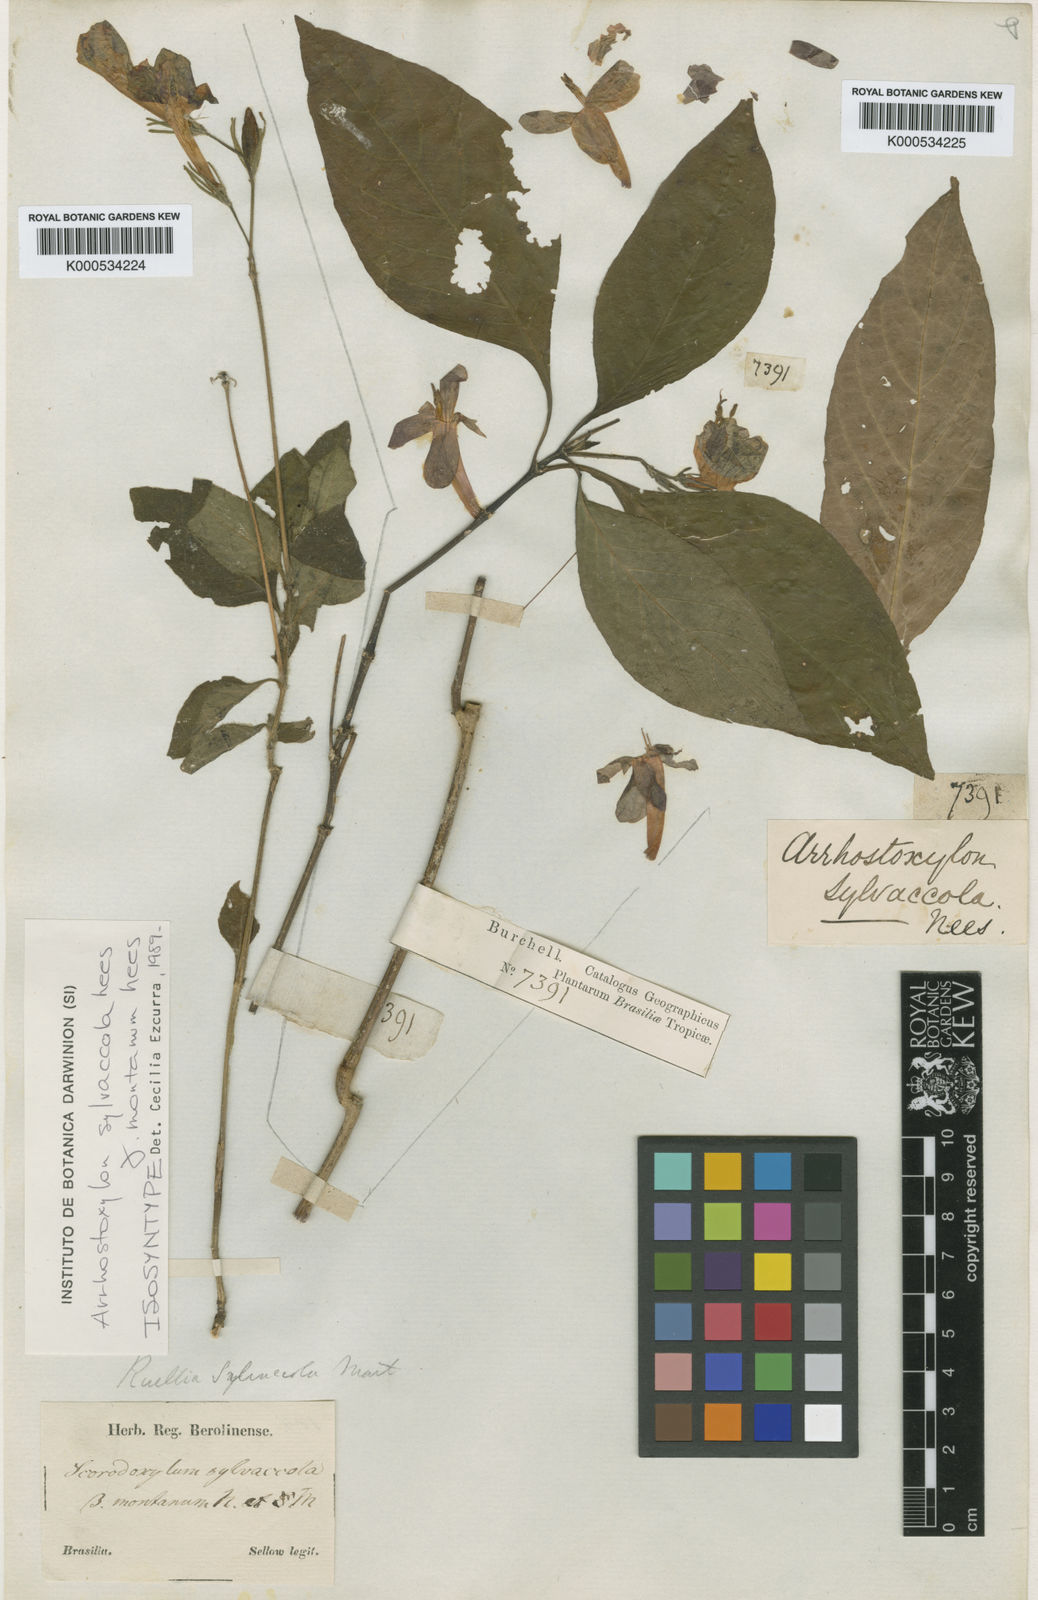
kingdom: Plantae
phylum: Tracheophyta
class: Magnoliopsida
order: Lamiales
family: Acanthaceae
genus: Ruellia
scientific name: Ruellia silvaccola
